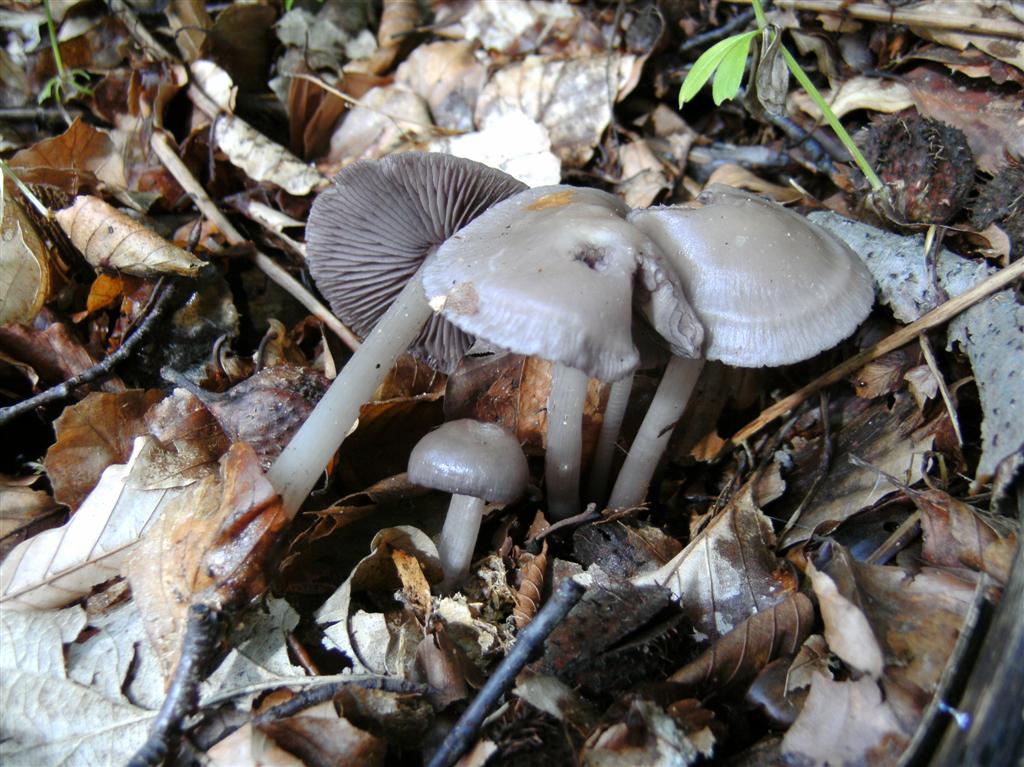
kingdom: Fungi
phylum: Basidiomycota
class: Agaricomycetes
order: Agaricales
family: Mycenaceae
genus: Mycena
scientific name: Mycena pelianthina
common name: mørkbladet huesvamp
